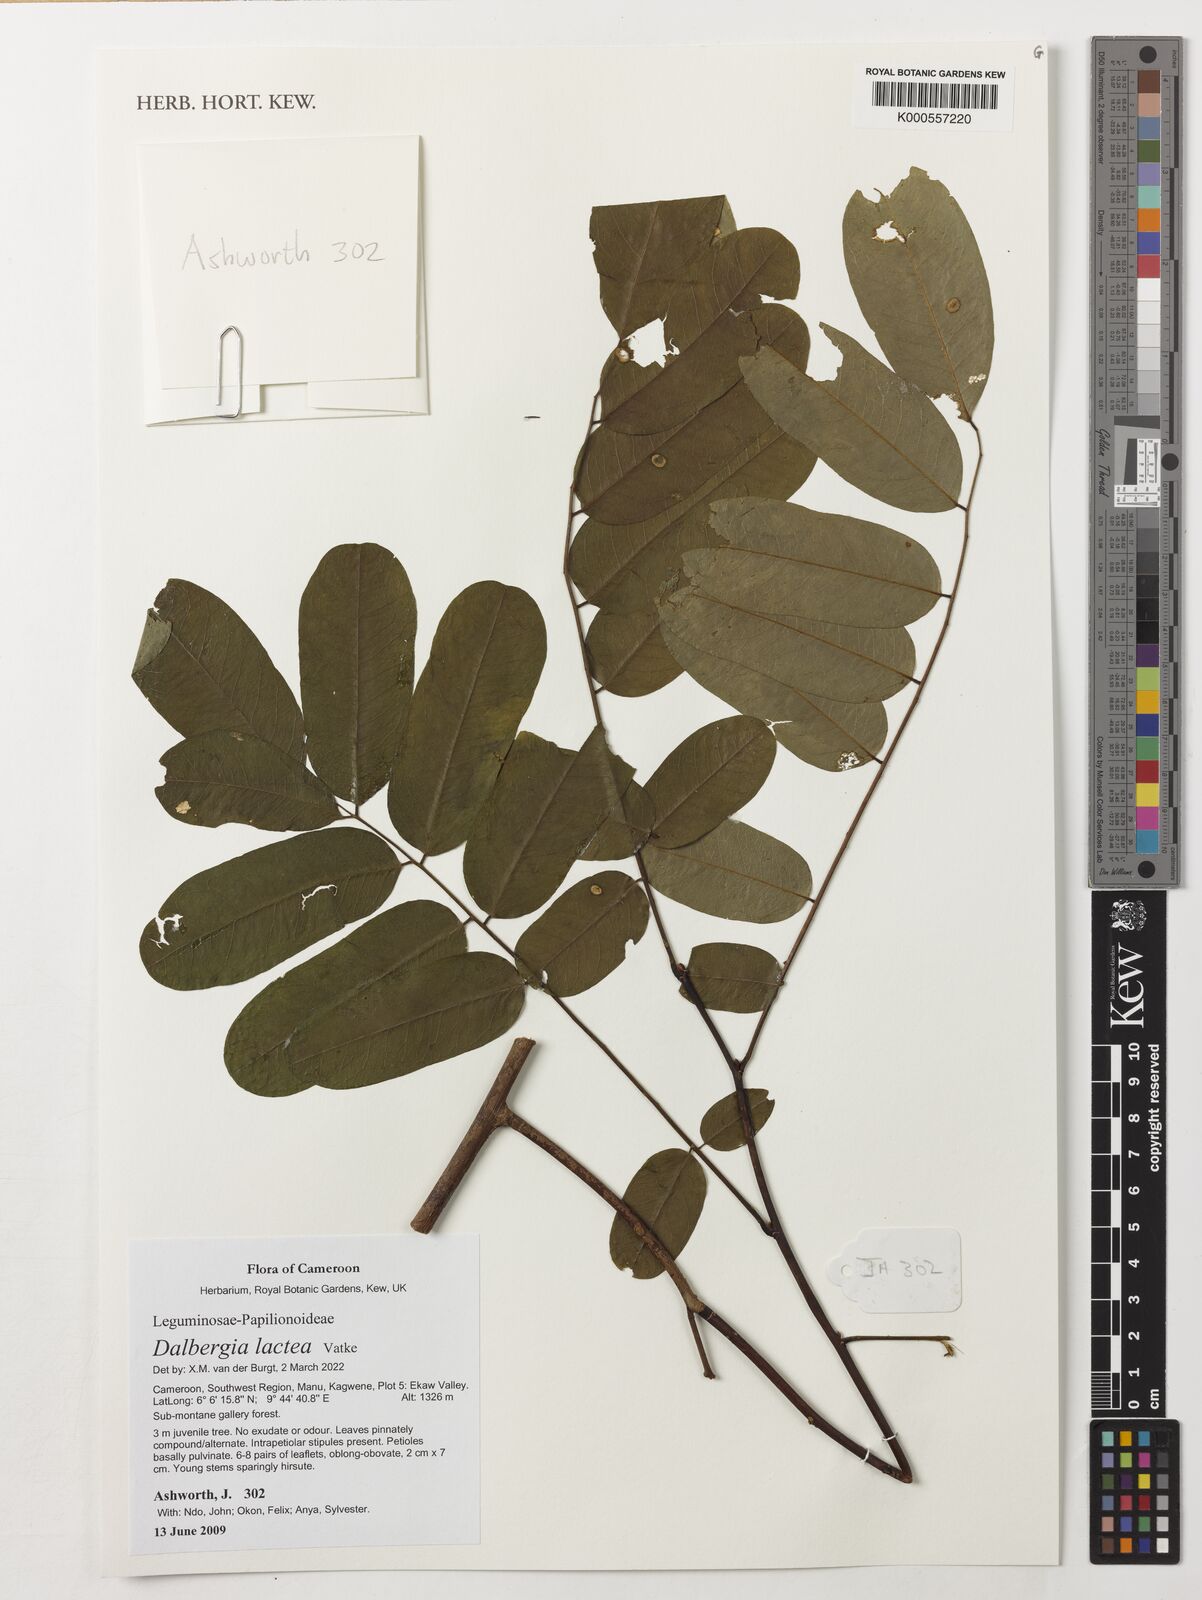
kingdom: Plantae
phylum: Tracheophyta
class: Magnoliopsida
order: Fabales
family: Fabaceae
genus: Dalbergia
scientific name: Dalbergia lactea
